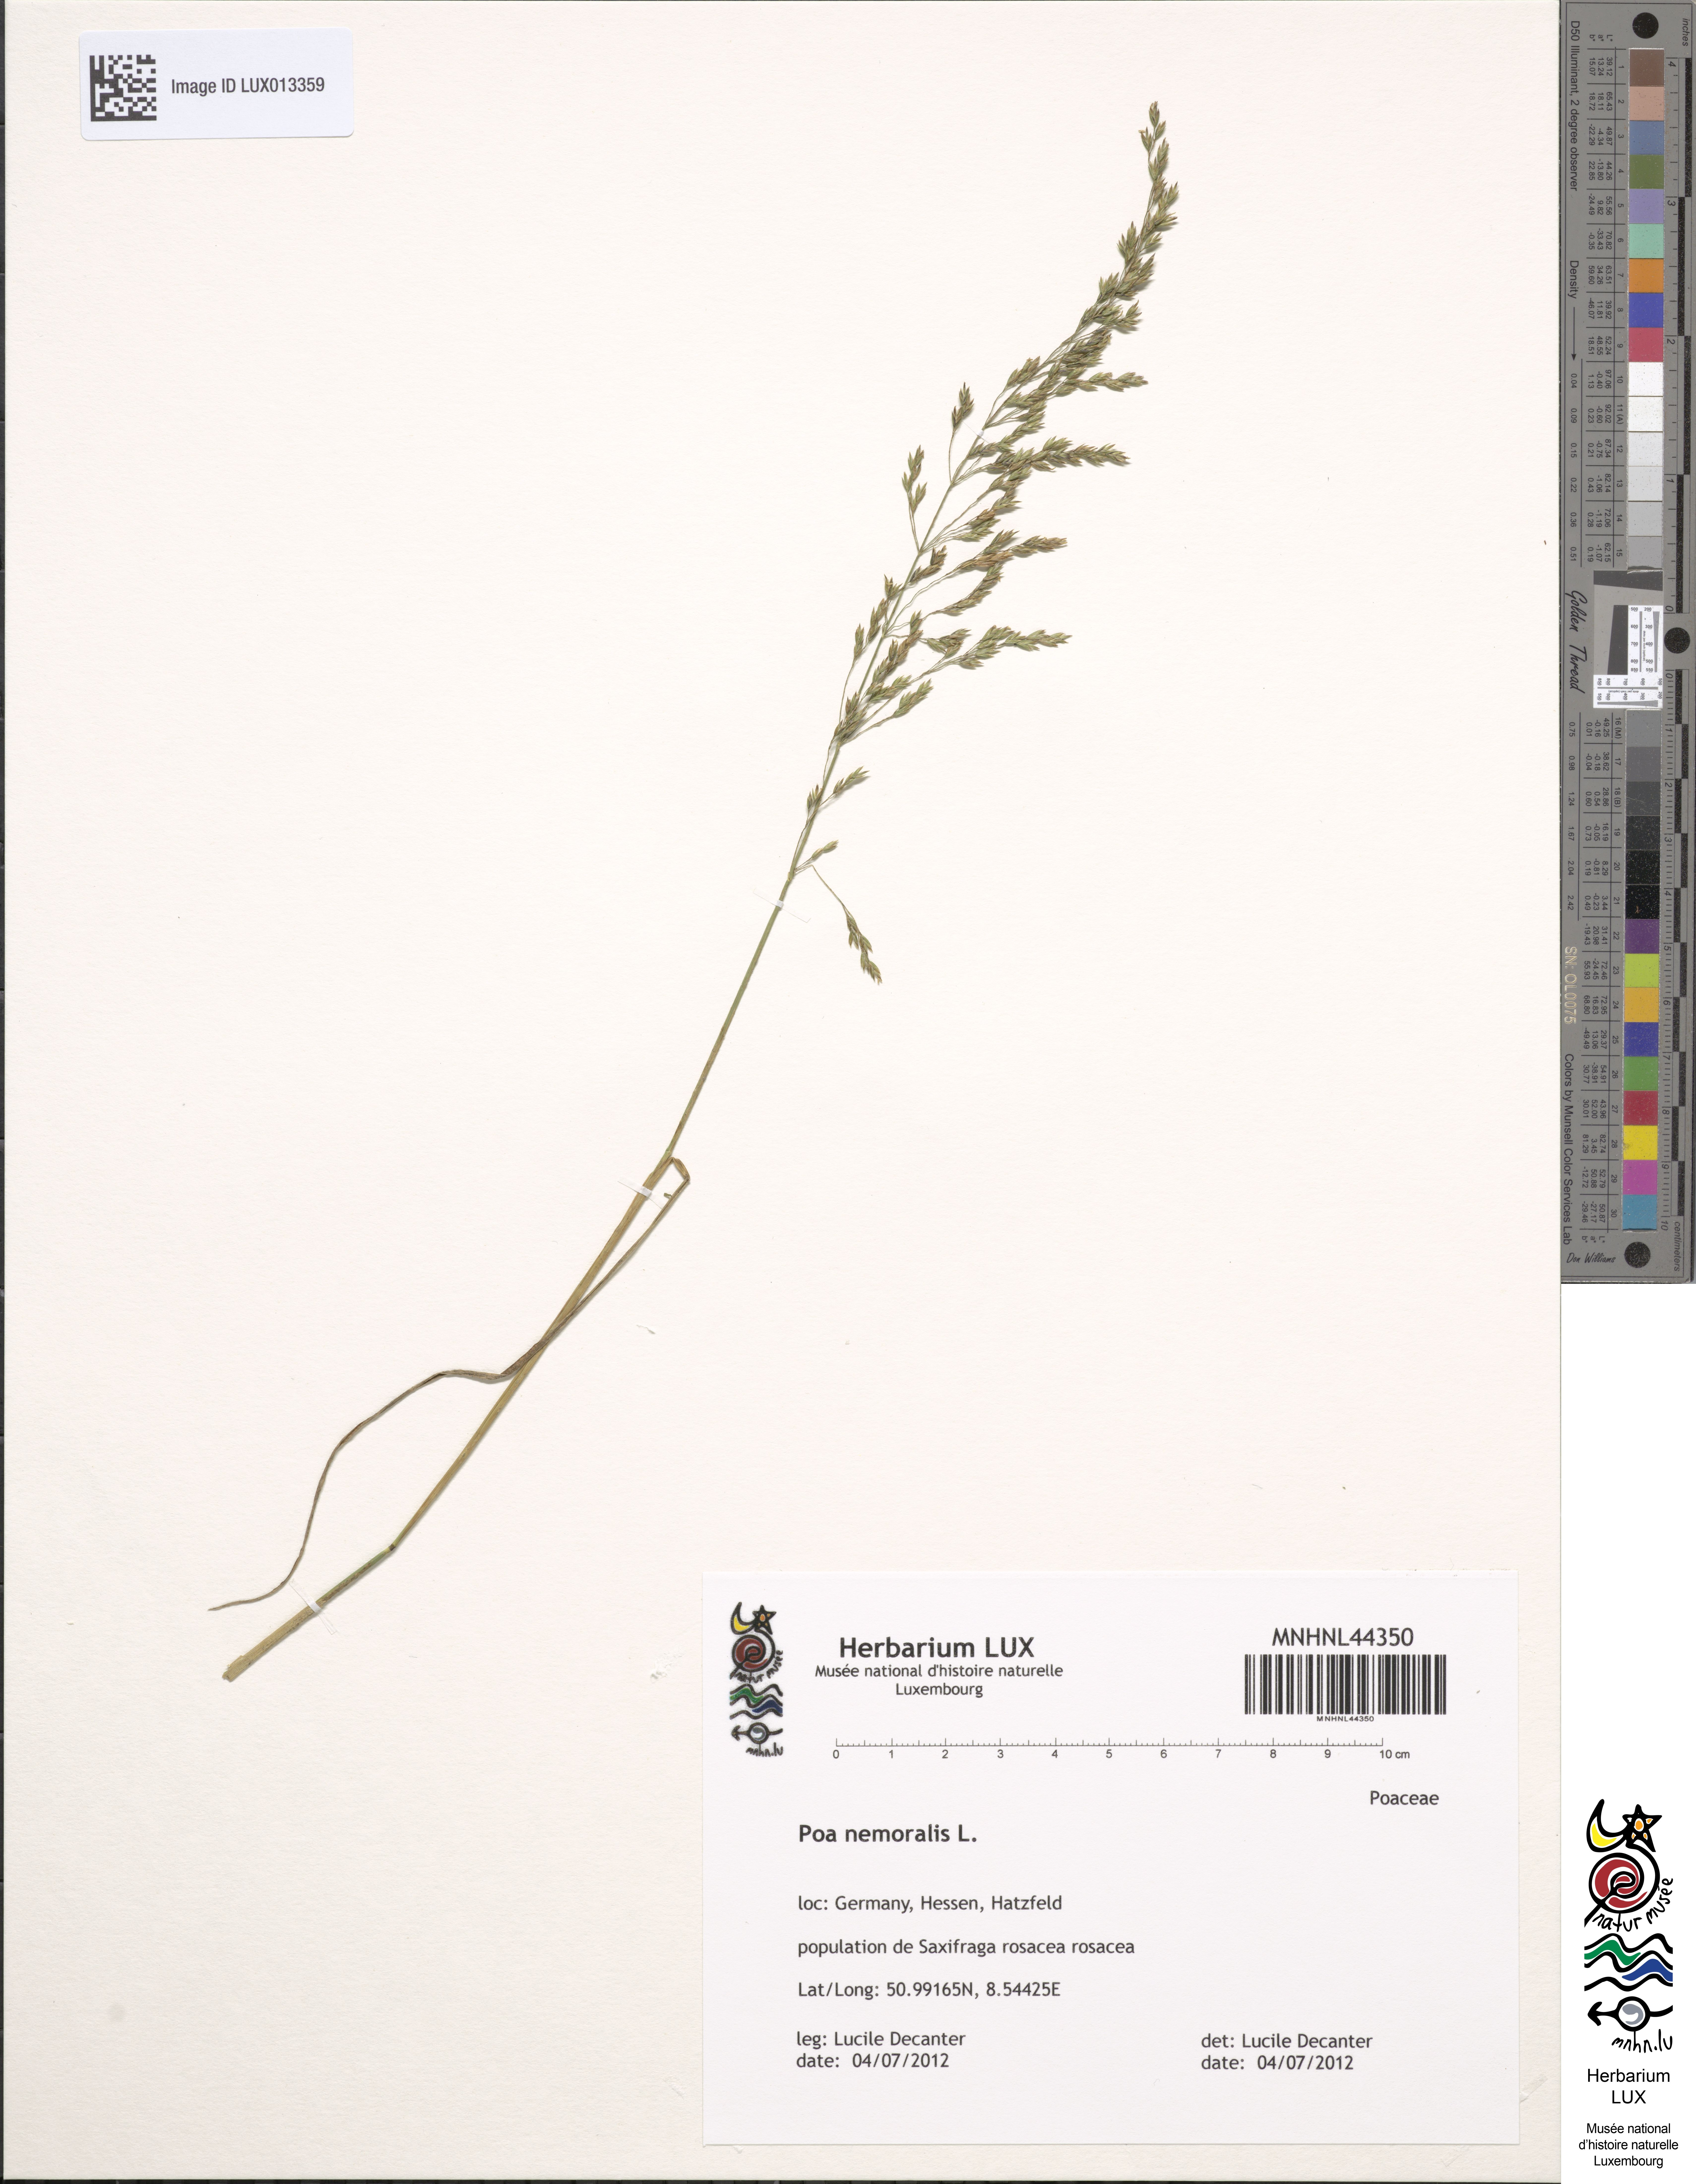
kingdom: Plantae
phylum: Tracheophyta
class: Liliopsida
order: Poales
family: Poaceae
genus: Poa
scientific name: Poa nemoralis
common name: Wood bluegrass
